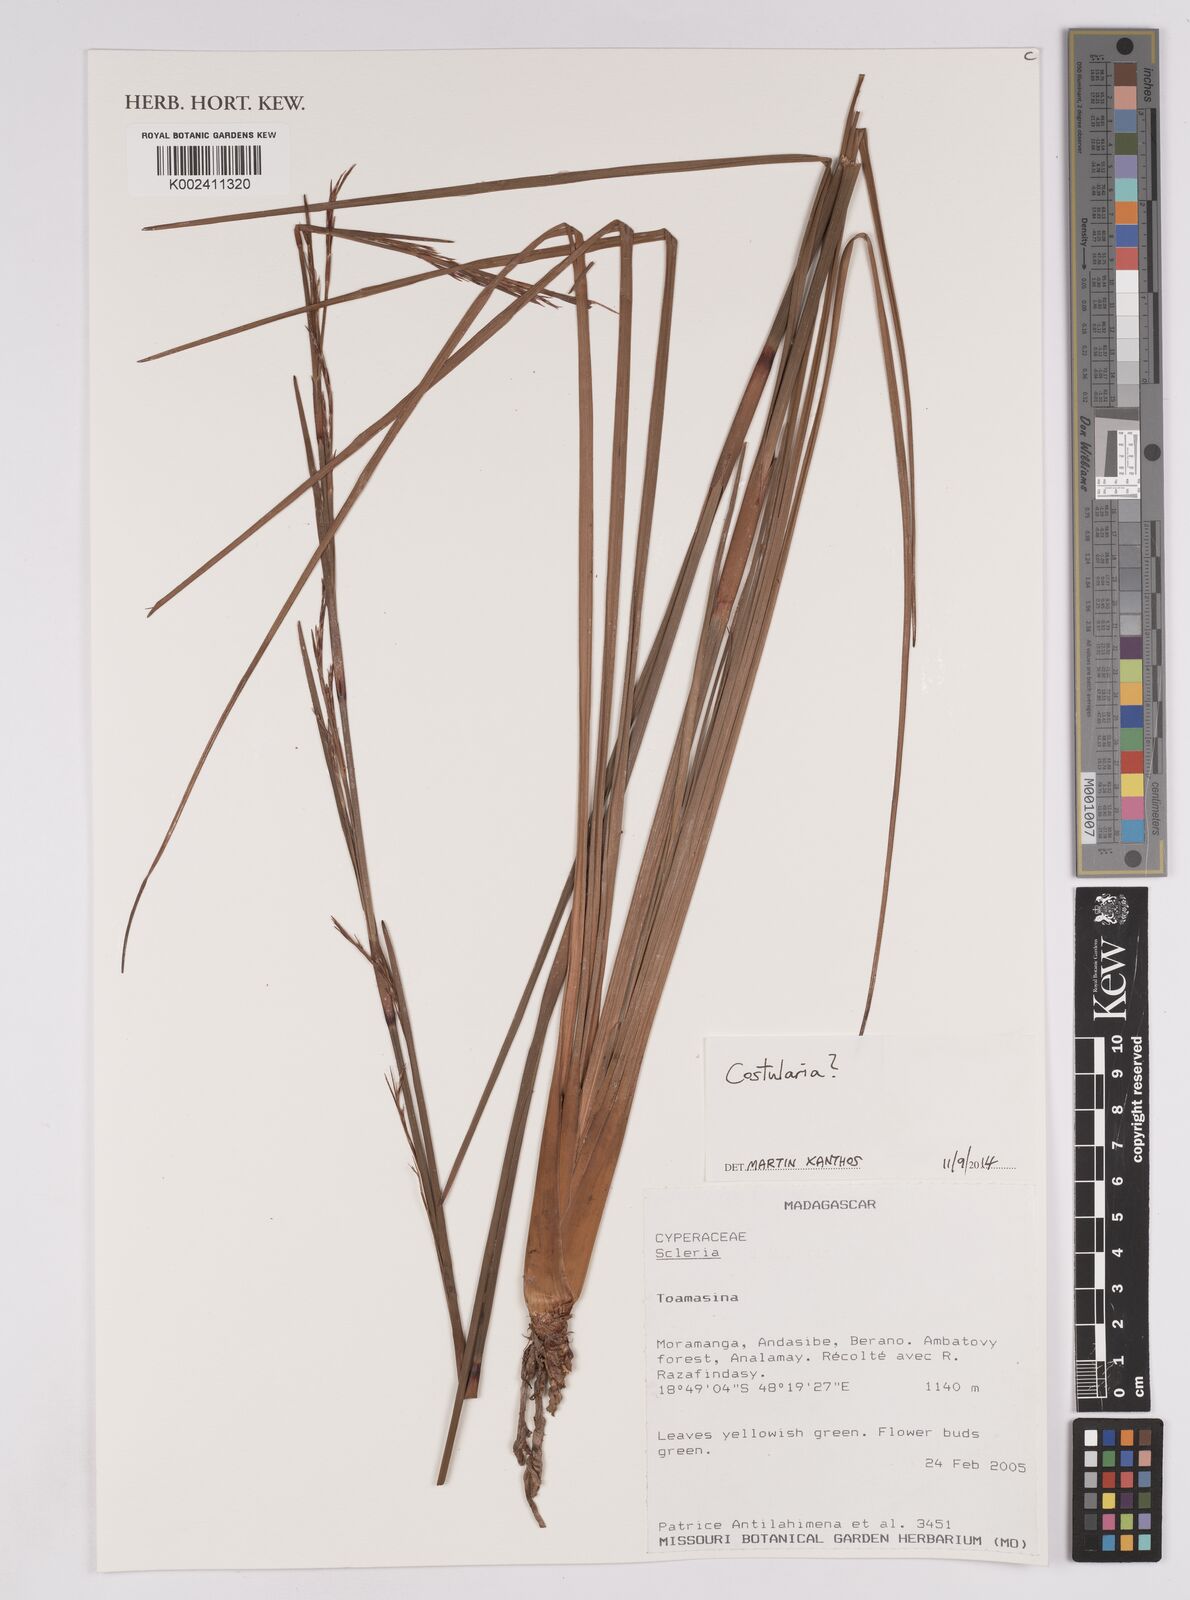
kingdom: Plantae
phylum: Tracheophyta
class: Liliopsida
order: Poales
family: Cyperaceae
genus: Costularia
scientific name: Costularia
